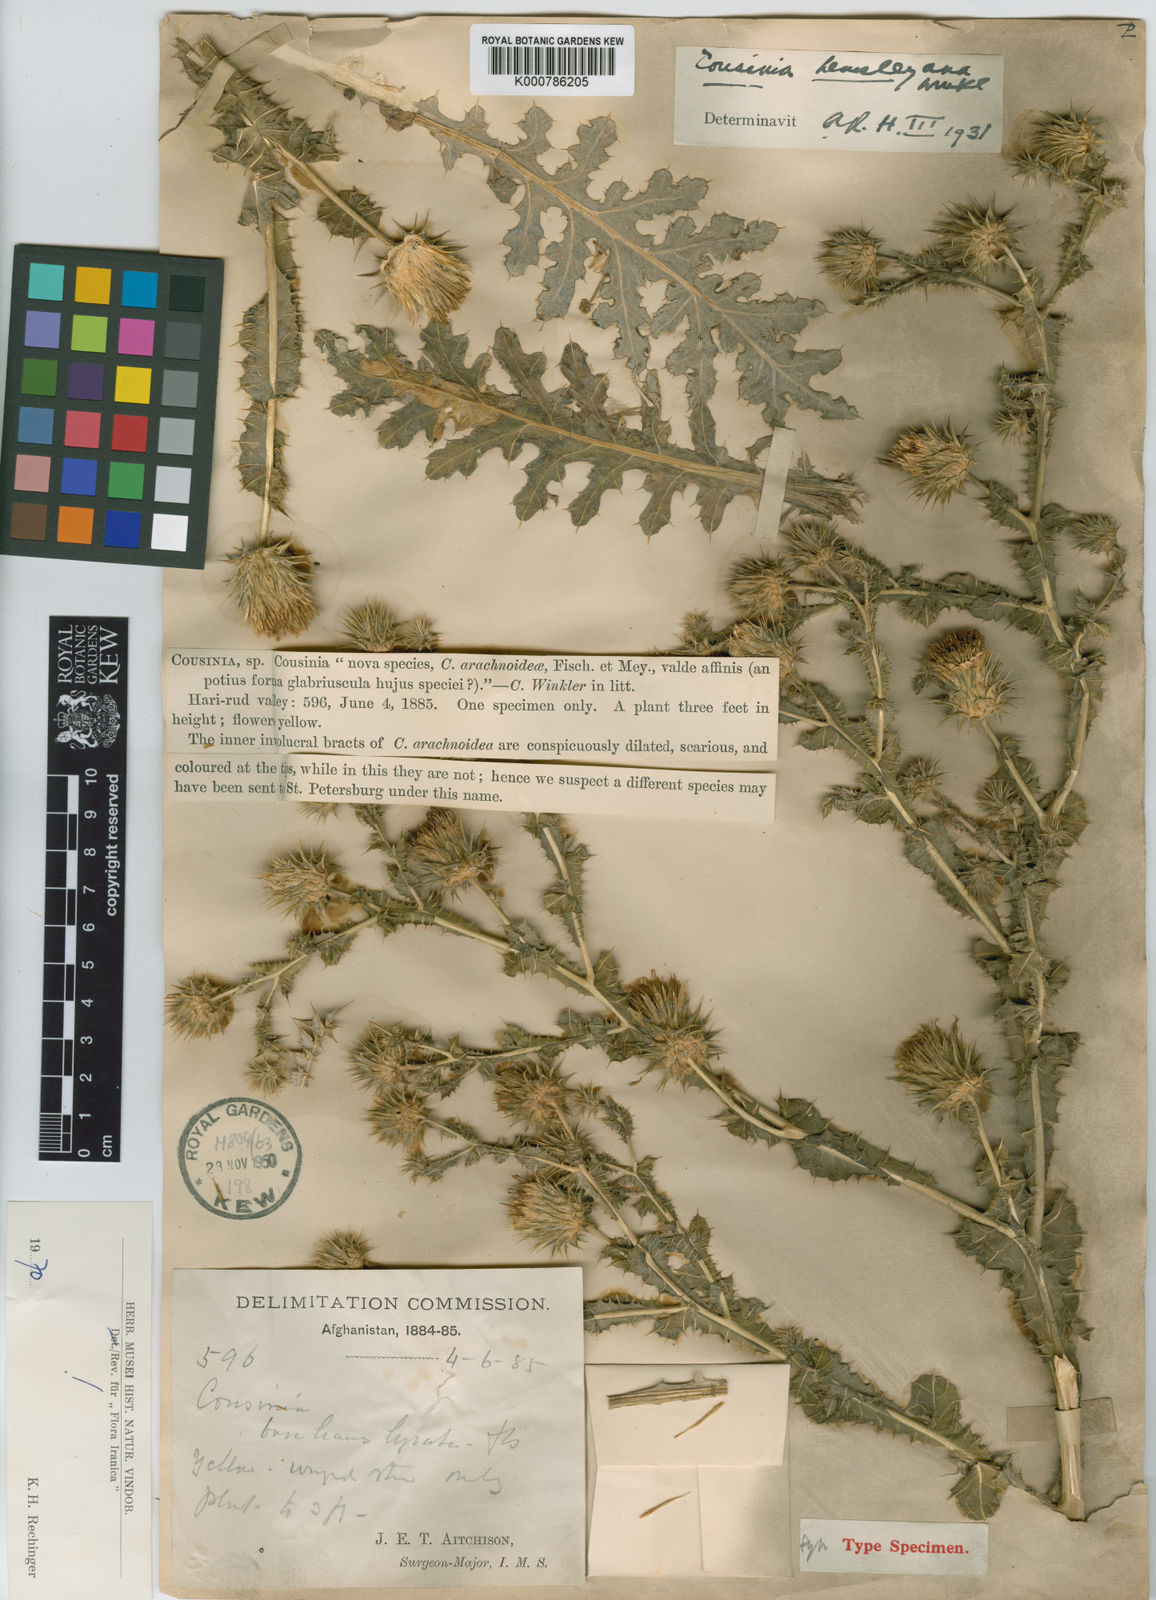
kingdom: Plantae
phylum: Tracheophyta
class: Magnoliopsida
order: Asterales
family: Asteraceae
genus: Cousinia
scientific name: Cousinia hemsleyana
